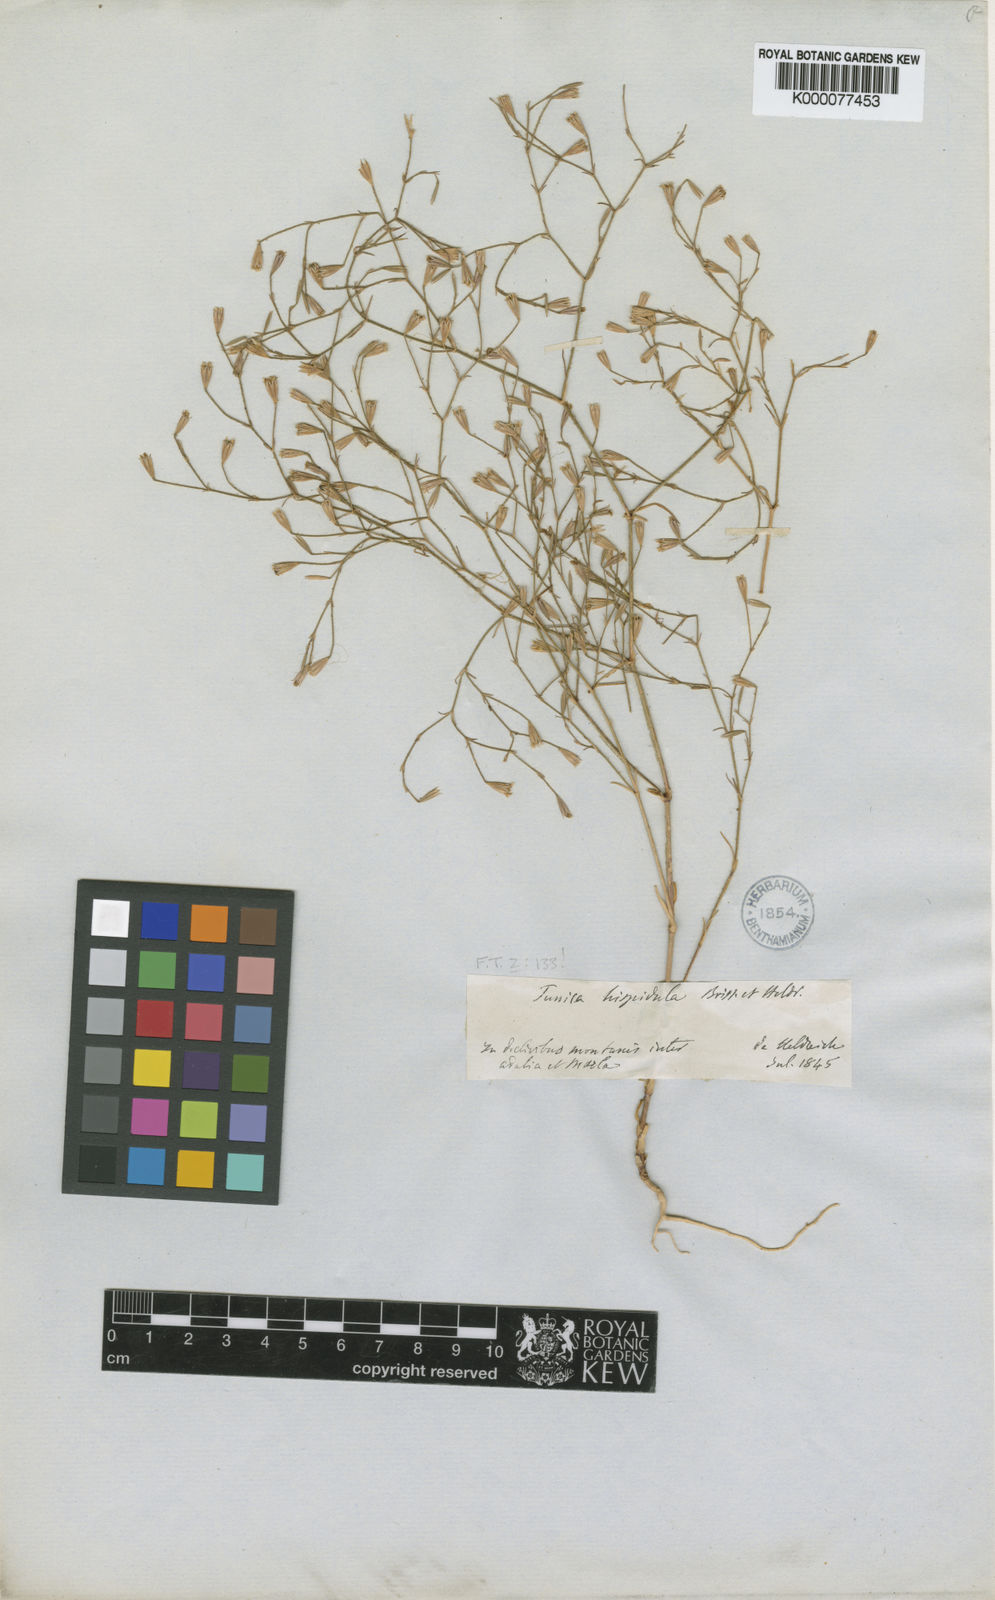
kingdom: Plantae
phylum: Tracheophyta
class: Magnoliopsida
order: Caryophyllales
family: Caryophyllaceae
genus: Petrorhagia
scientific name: Petrorhagia hispidula
